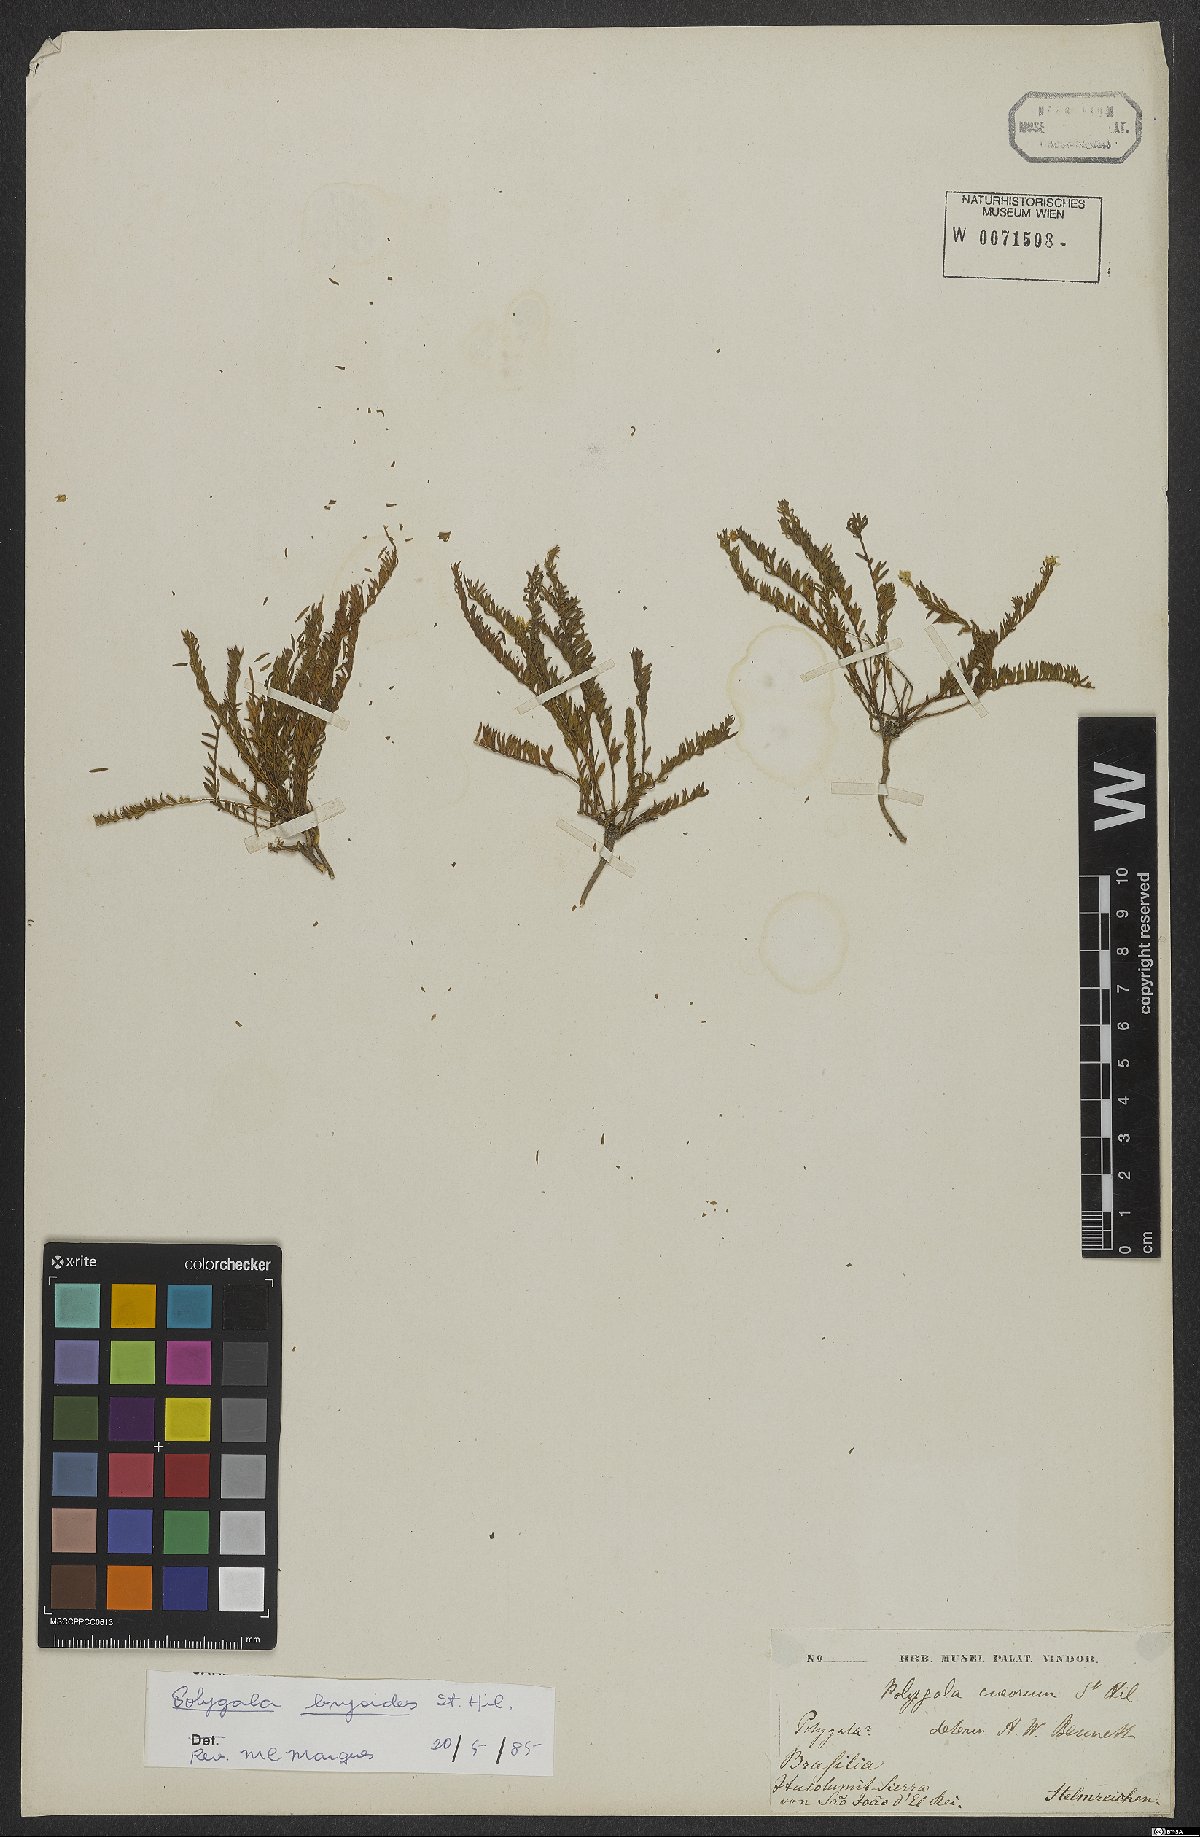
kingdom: Plantae
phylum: Tracheophyta
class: Magnoliopsida
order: Fabales
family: Polygalaceae
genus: Polygala
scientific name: Polygala bryoides
